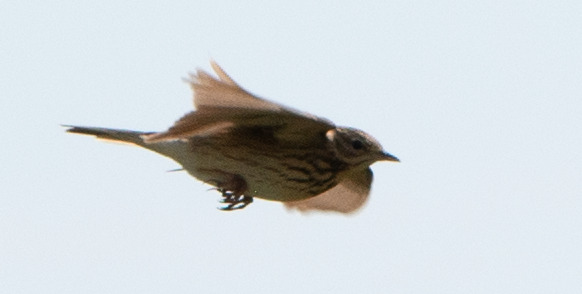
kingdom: Animalia
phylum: Chordata
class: Aves
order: Passeriformes
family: Motacillidae
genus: Anthus
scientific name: Anthus trivialis
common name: Skovpiber
